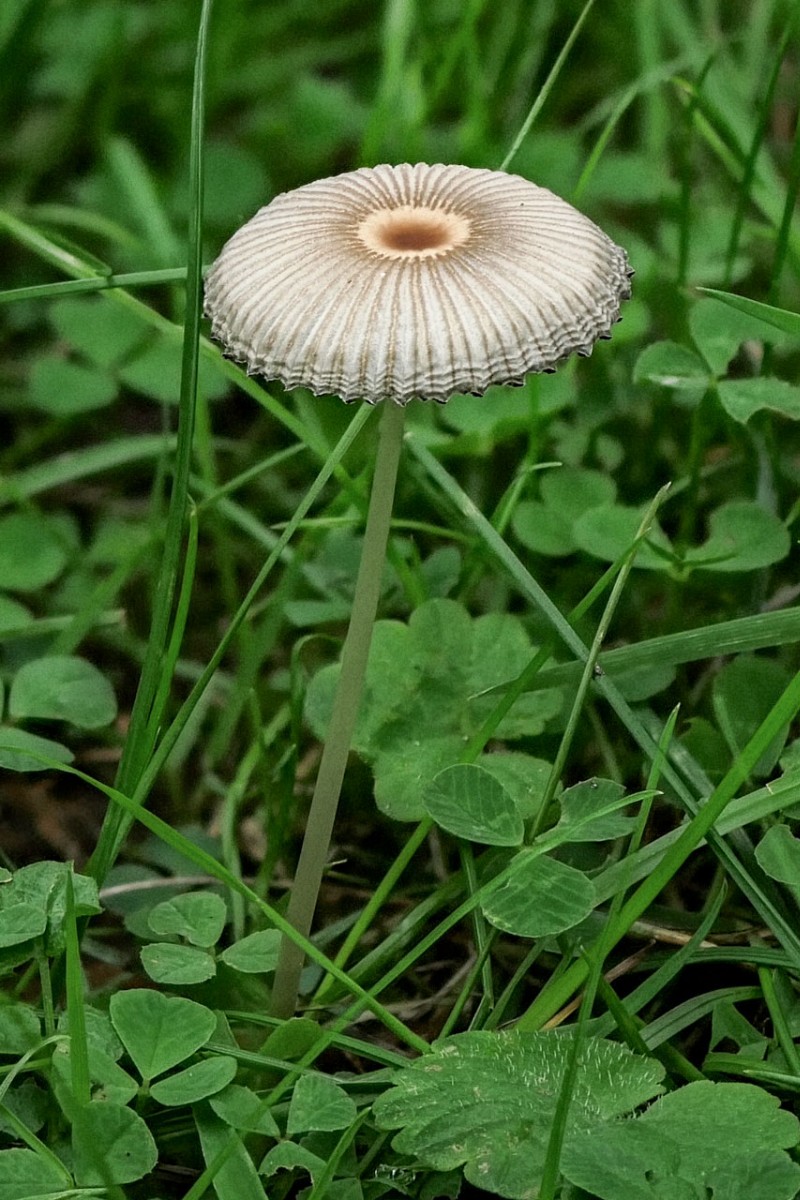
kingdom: Fungi
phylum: Basidiomycota
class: Agaricomycetes
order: Agaricales
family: Psathyrellaceae
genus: Parasola
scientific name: Parasola
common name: hjulhat
